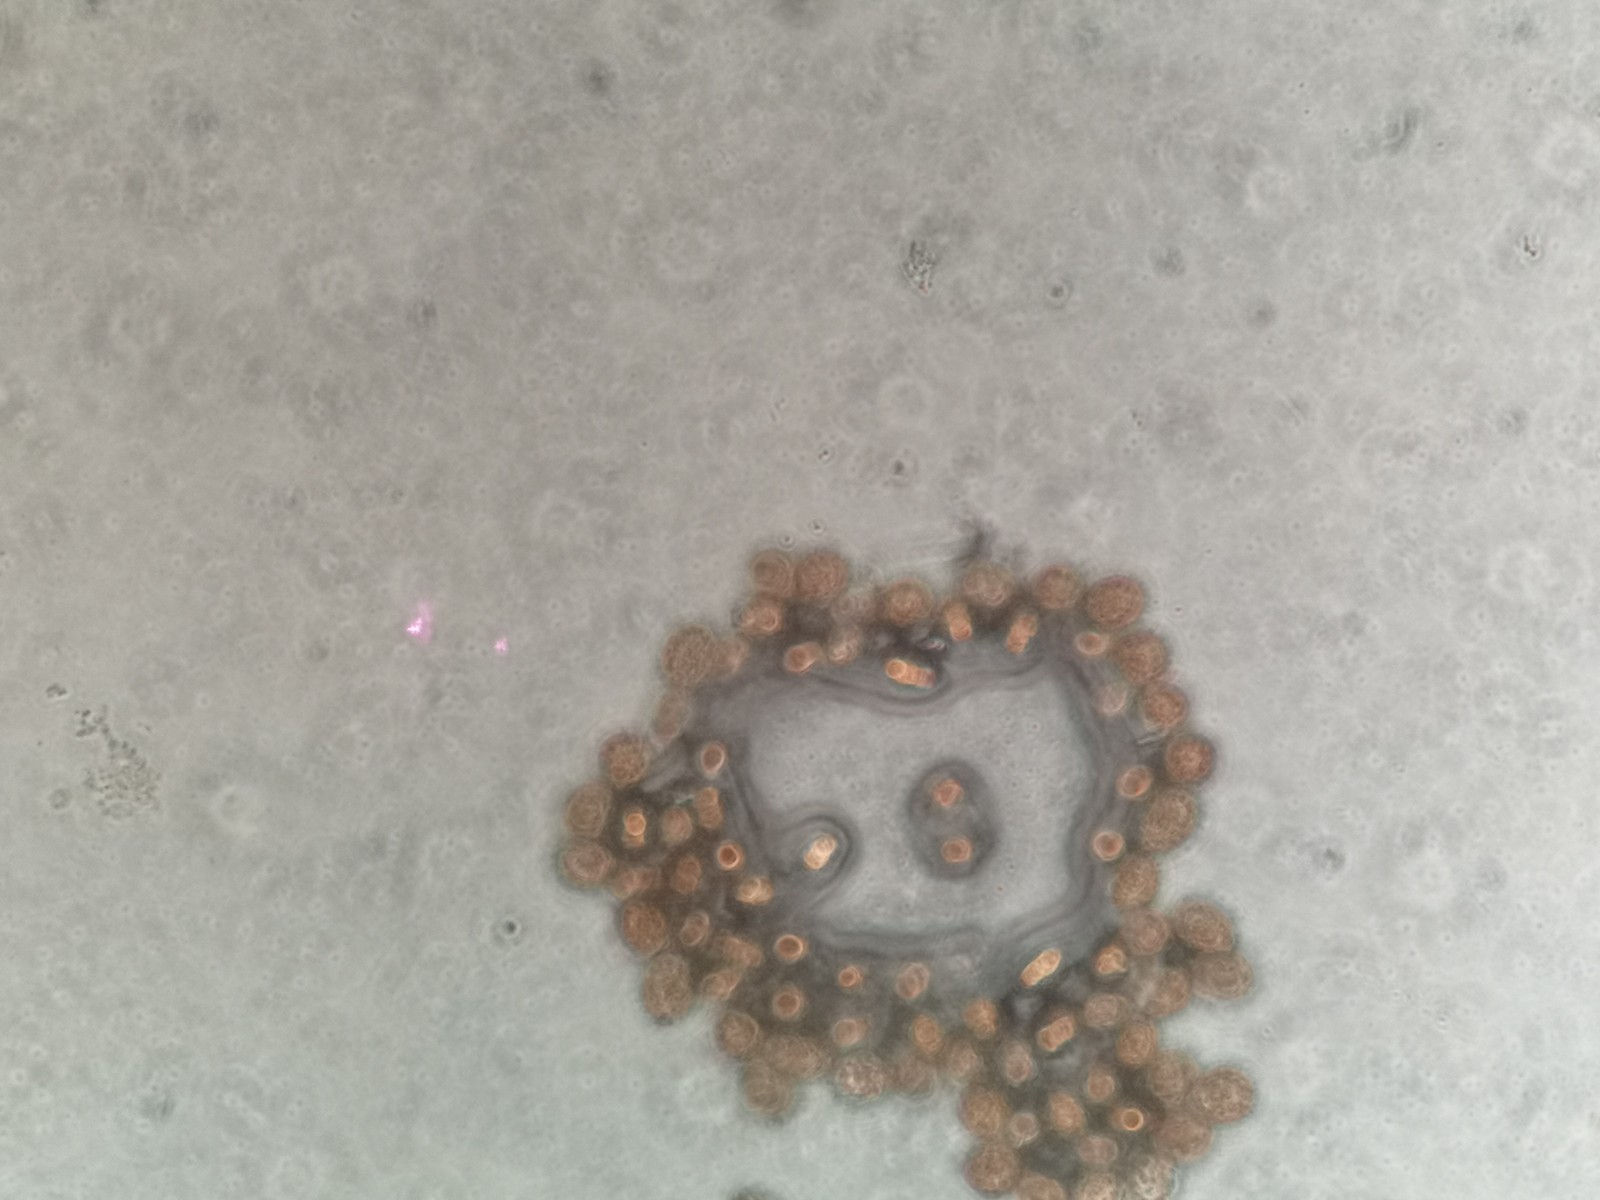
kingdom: Fungi
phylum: Basidiomycota
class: Pucciniomycetes
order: Pucciniales
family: Pucciniaceae
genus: Uromyces
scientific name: Uromyces viciae-fabae
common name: Broad bean rust
